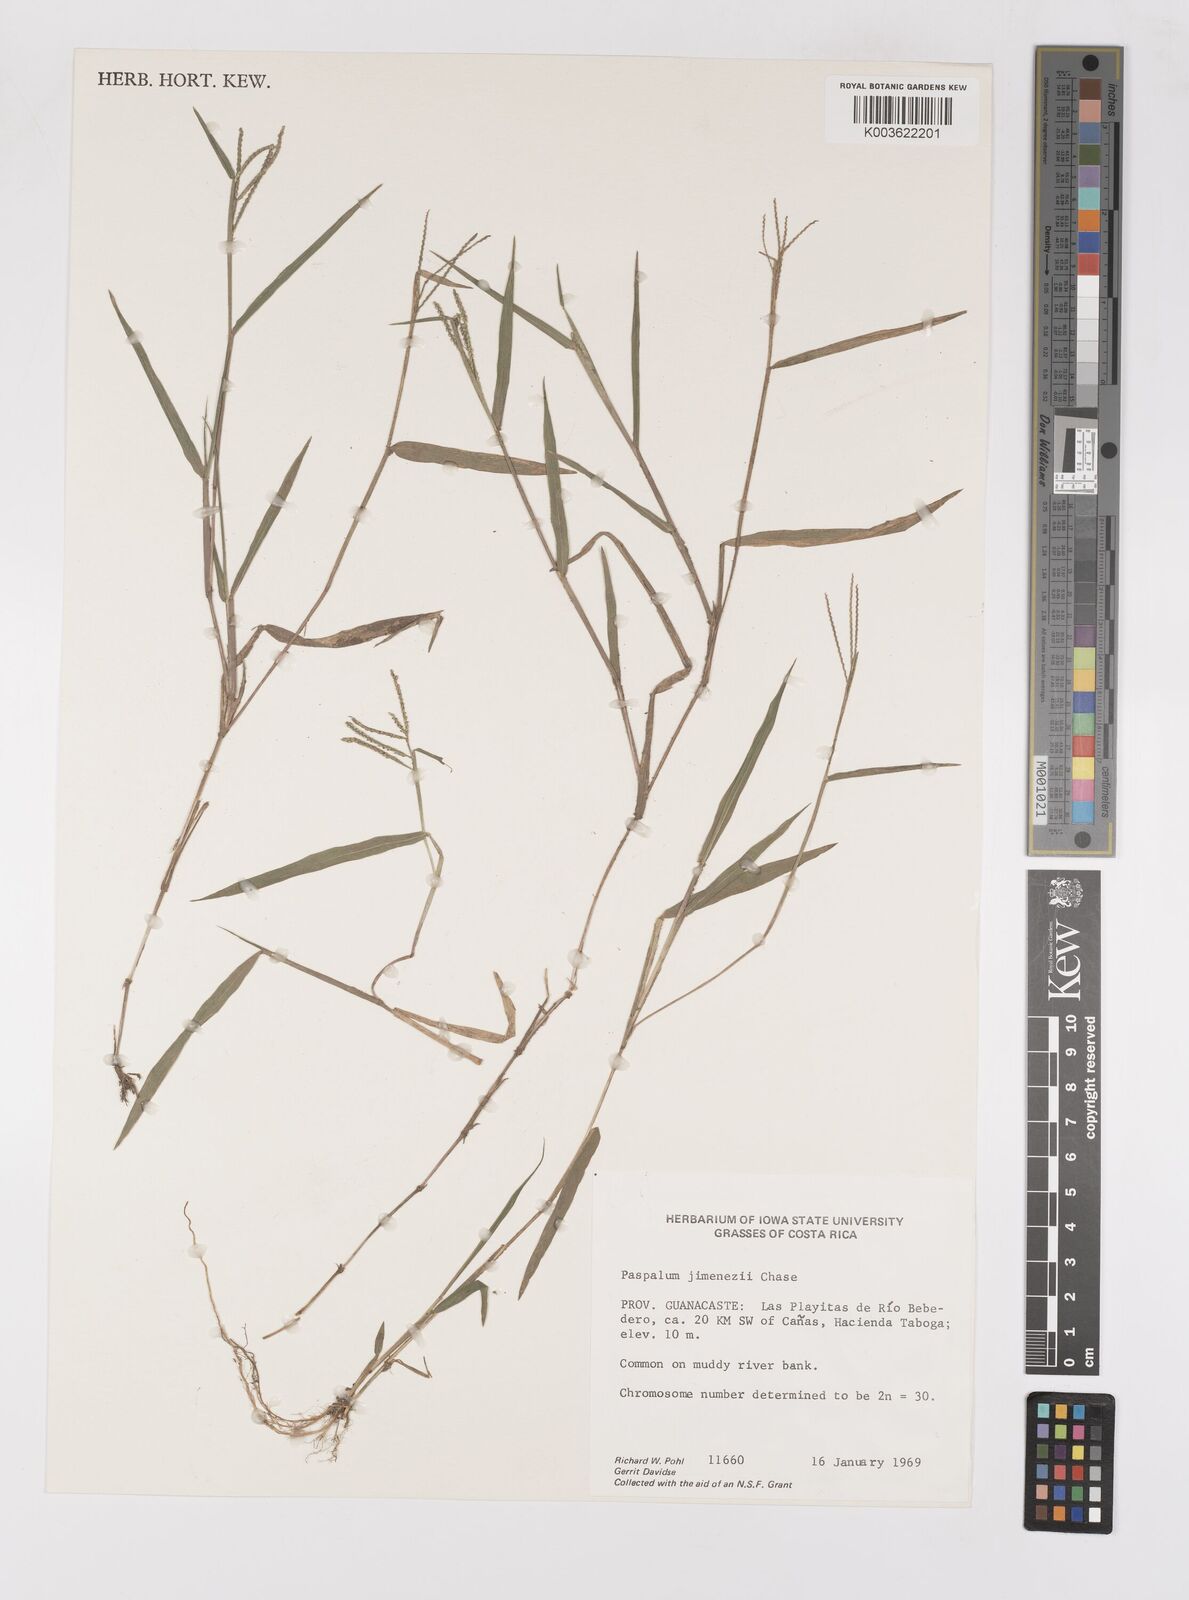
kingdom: Plantae
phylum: Tracheophyta
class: Liliopsida
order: Poales
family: Poaceae
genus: Paspalum
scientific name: Paspalum jimenezii
